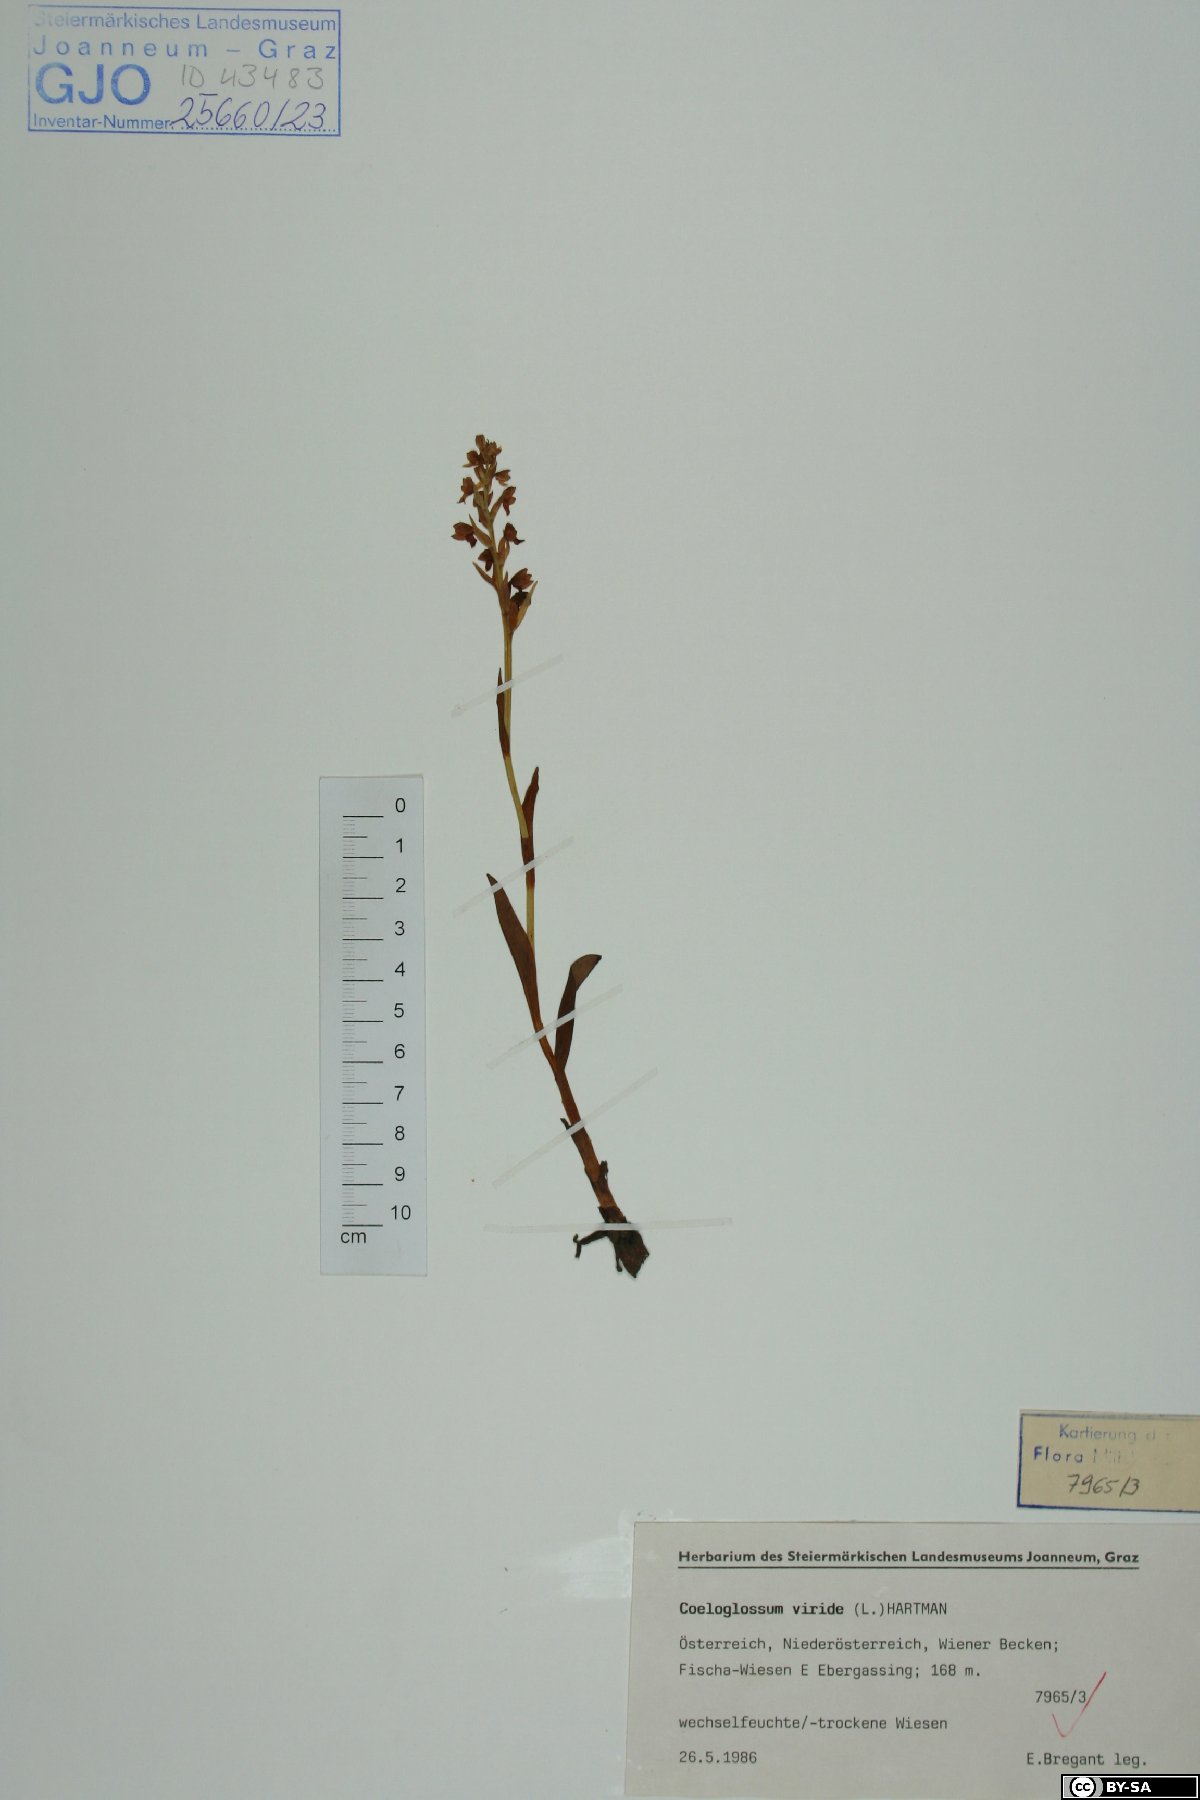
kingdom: Plantae
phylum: Tracheophyta
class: Liliopsida
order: Asparagales
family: Orchidaceae
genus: Dactylorhiza
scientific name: Dactylorhiza viridis
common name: Longbract frog orchid
